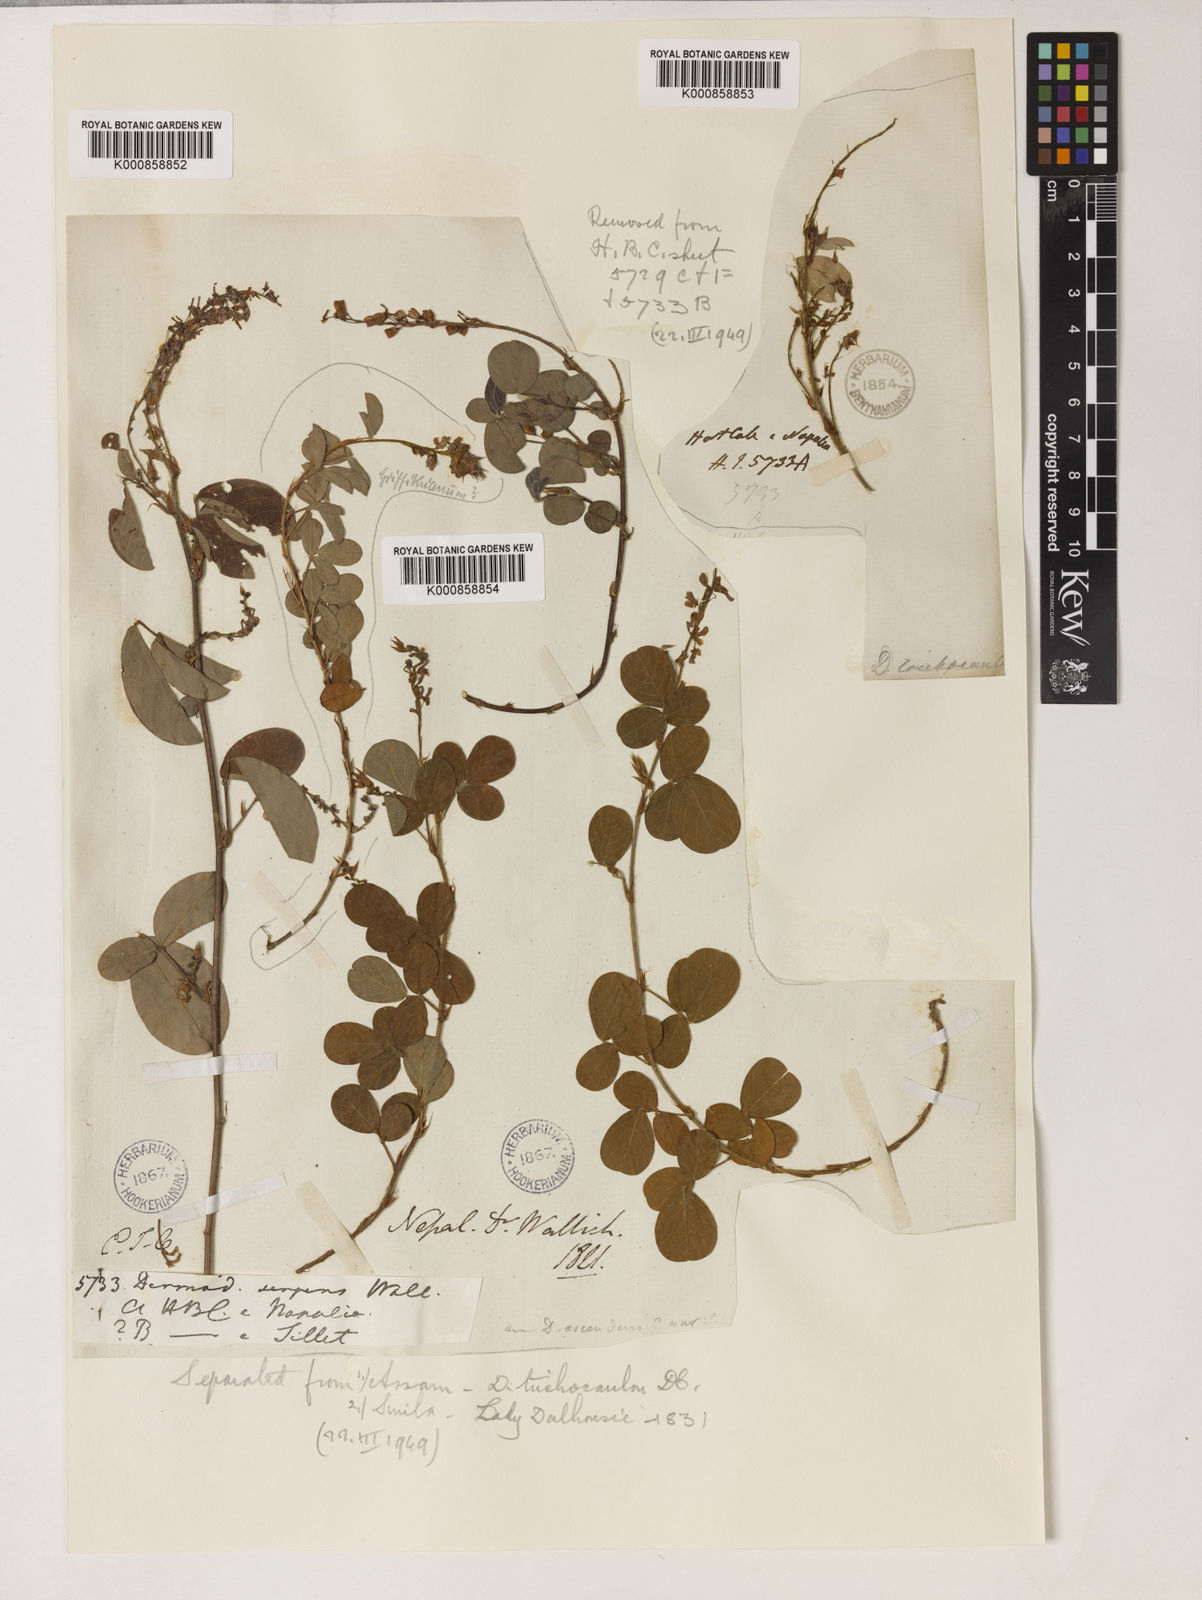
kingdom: Plantae
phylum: Tracheophyta
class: Magnoliopsida
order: Fabales
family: Fabaceae
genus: Grona
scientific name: Grona heterocarpos
